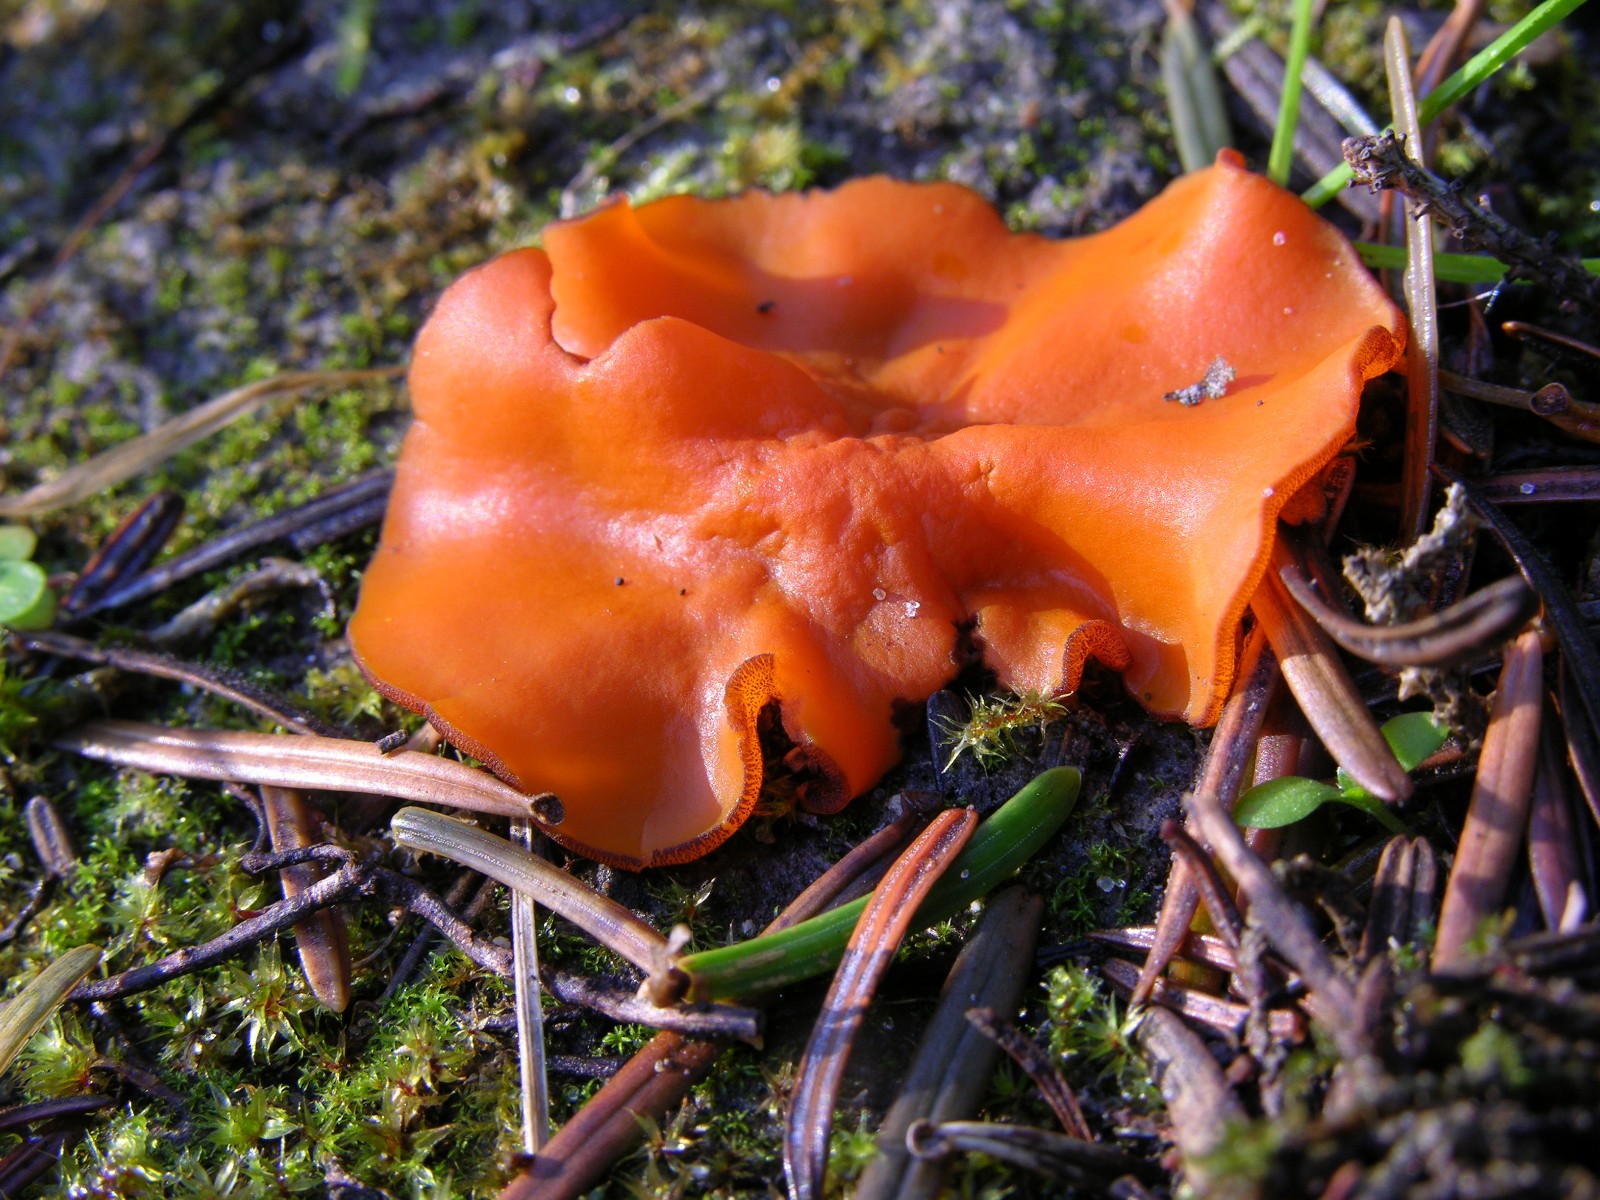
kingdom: Fungi
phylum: Ascomycota
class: Pezizomycetes
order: Pezizales
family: Pyronemataceae
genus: Melastiza
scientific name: Melastiza cornubiensis
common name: mørkrandet rødbæger
